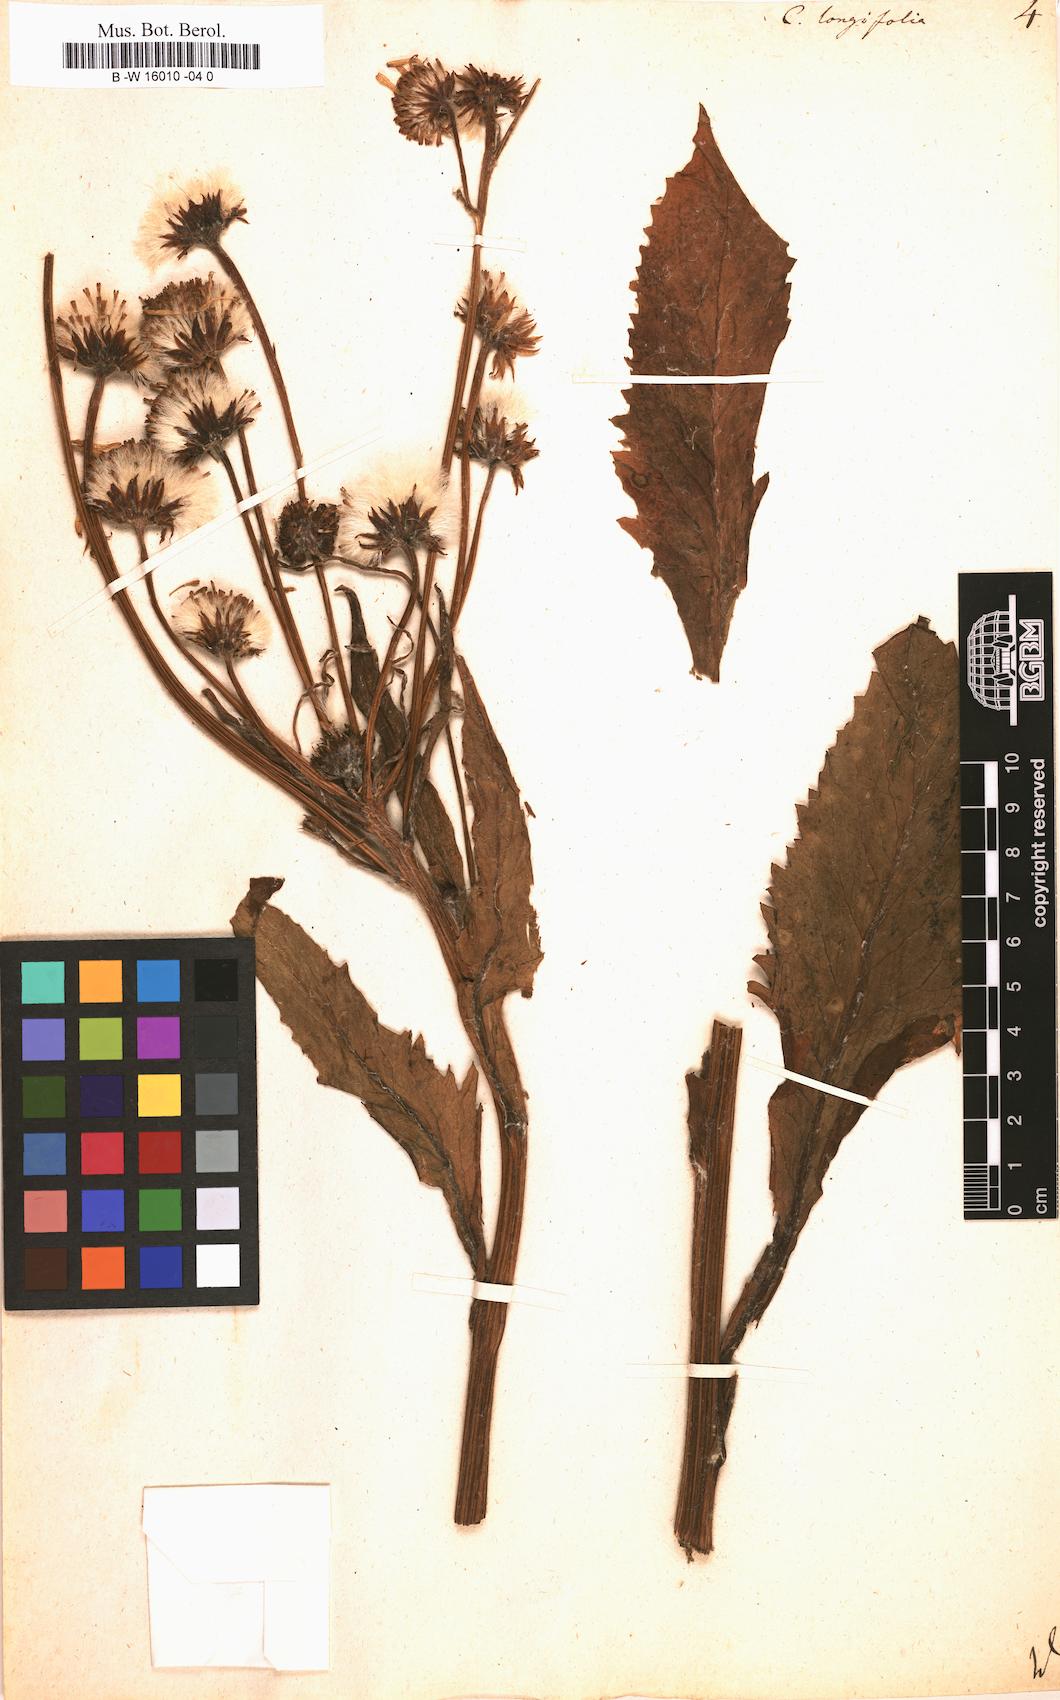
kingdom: Plantae
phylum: Tracheophyta
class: Magnoliopsida
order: Asterales
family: Asteraceae
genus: Tephroseris
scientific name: Tephroseris
